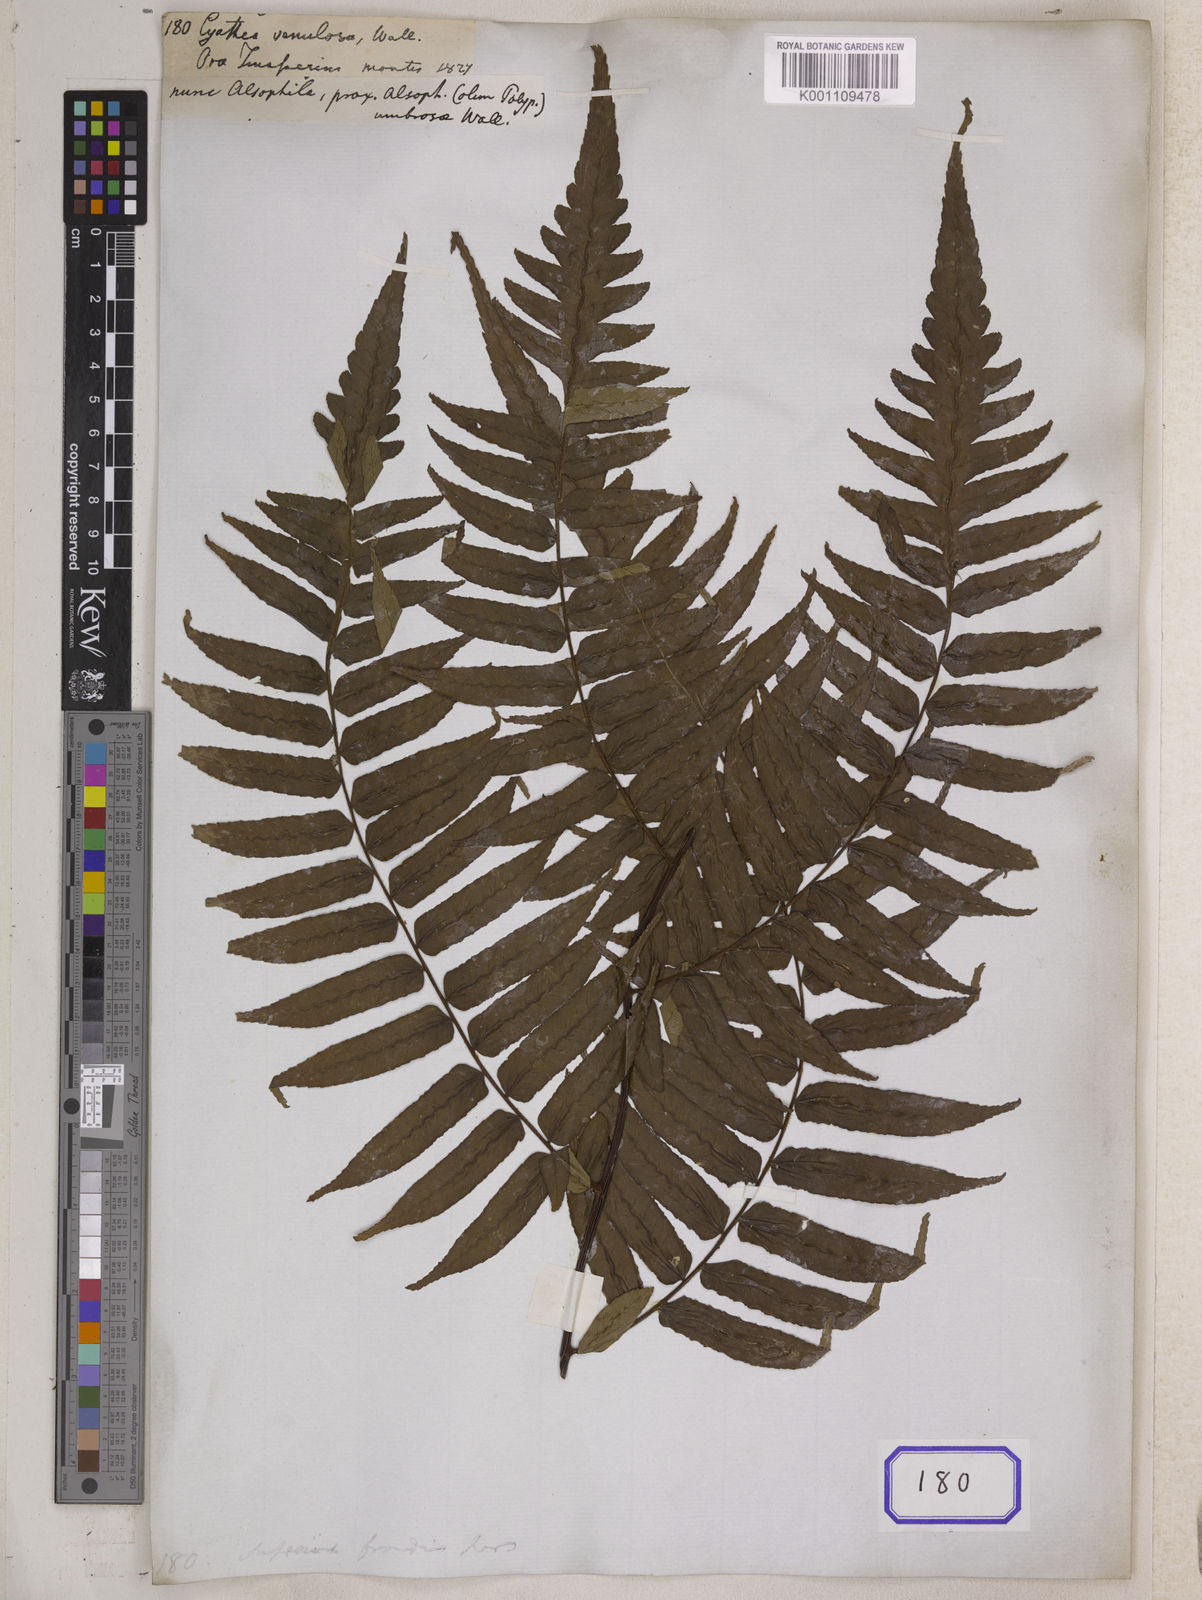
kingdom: Plantae
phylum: Tracheophyta
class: Polypodiopsida
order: Cyatheales
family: Cyatheaceae
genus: Gymnosphaera
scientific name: Gymnosphaera gigantea
